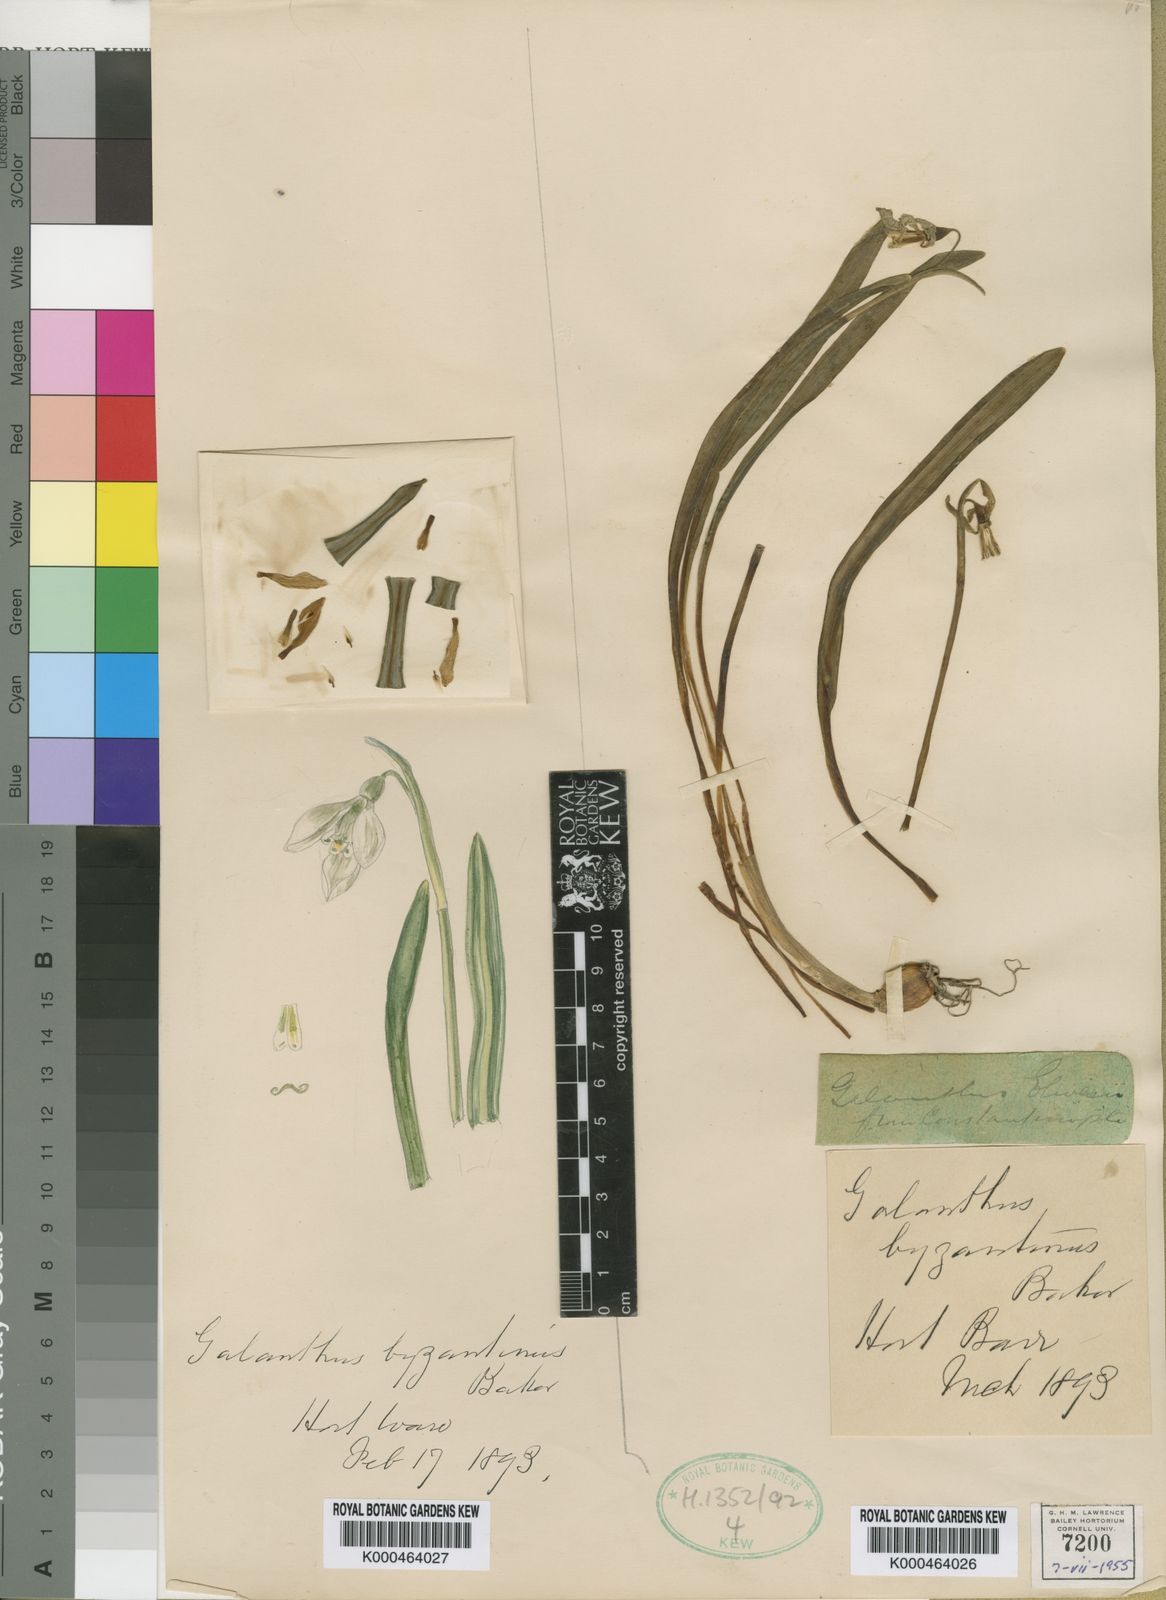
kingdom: Plantae
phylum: Tracheophyta
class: Liliopsida
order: Asparagales
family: Amaryllidaceae
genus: Galanthus
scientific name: Galanthus plicatus
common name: Pleated snowdrop
